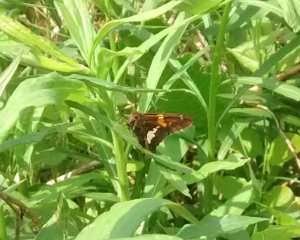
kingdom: Animalia
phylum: Arthropoda
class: Insecta
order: Lepidoptera
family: Hesperiidae
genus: Epargyreus
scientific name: Epargyreus clarus
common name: Silver-spotted Skipper
